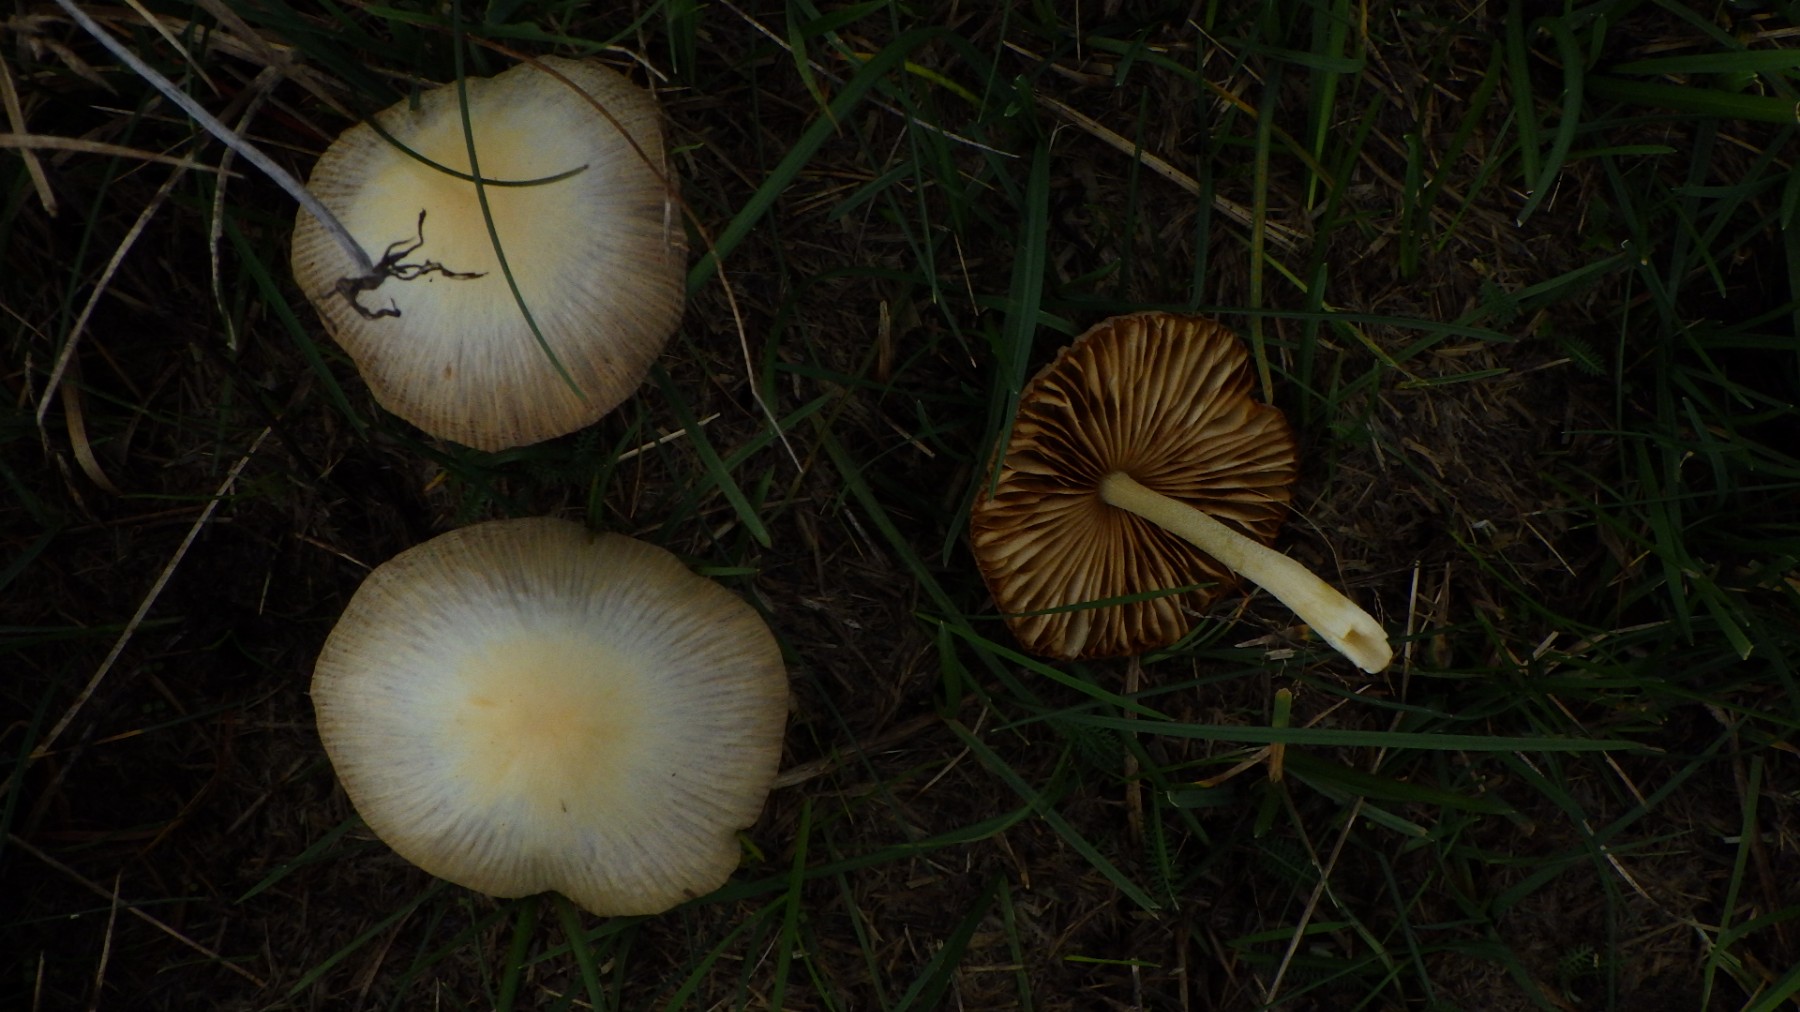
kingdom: Fungi
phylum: Basidiomycota
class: Agaricomycetes
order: Agaricales
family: Bolbitiaceae
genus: Bolbitius
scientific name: Bolbitius titubans
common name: almindelig gulhat
